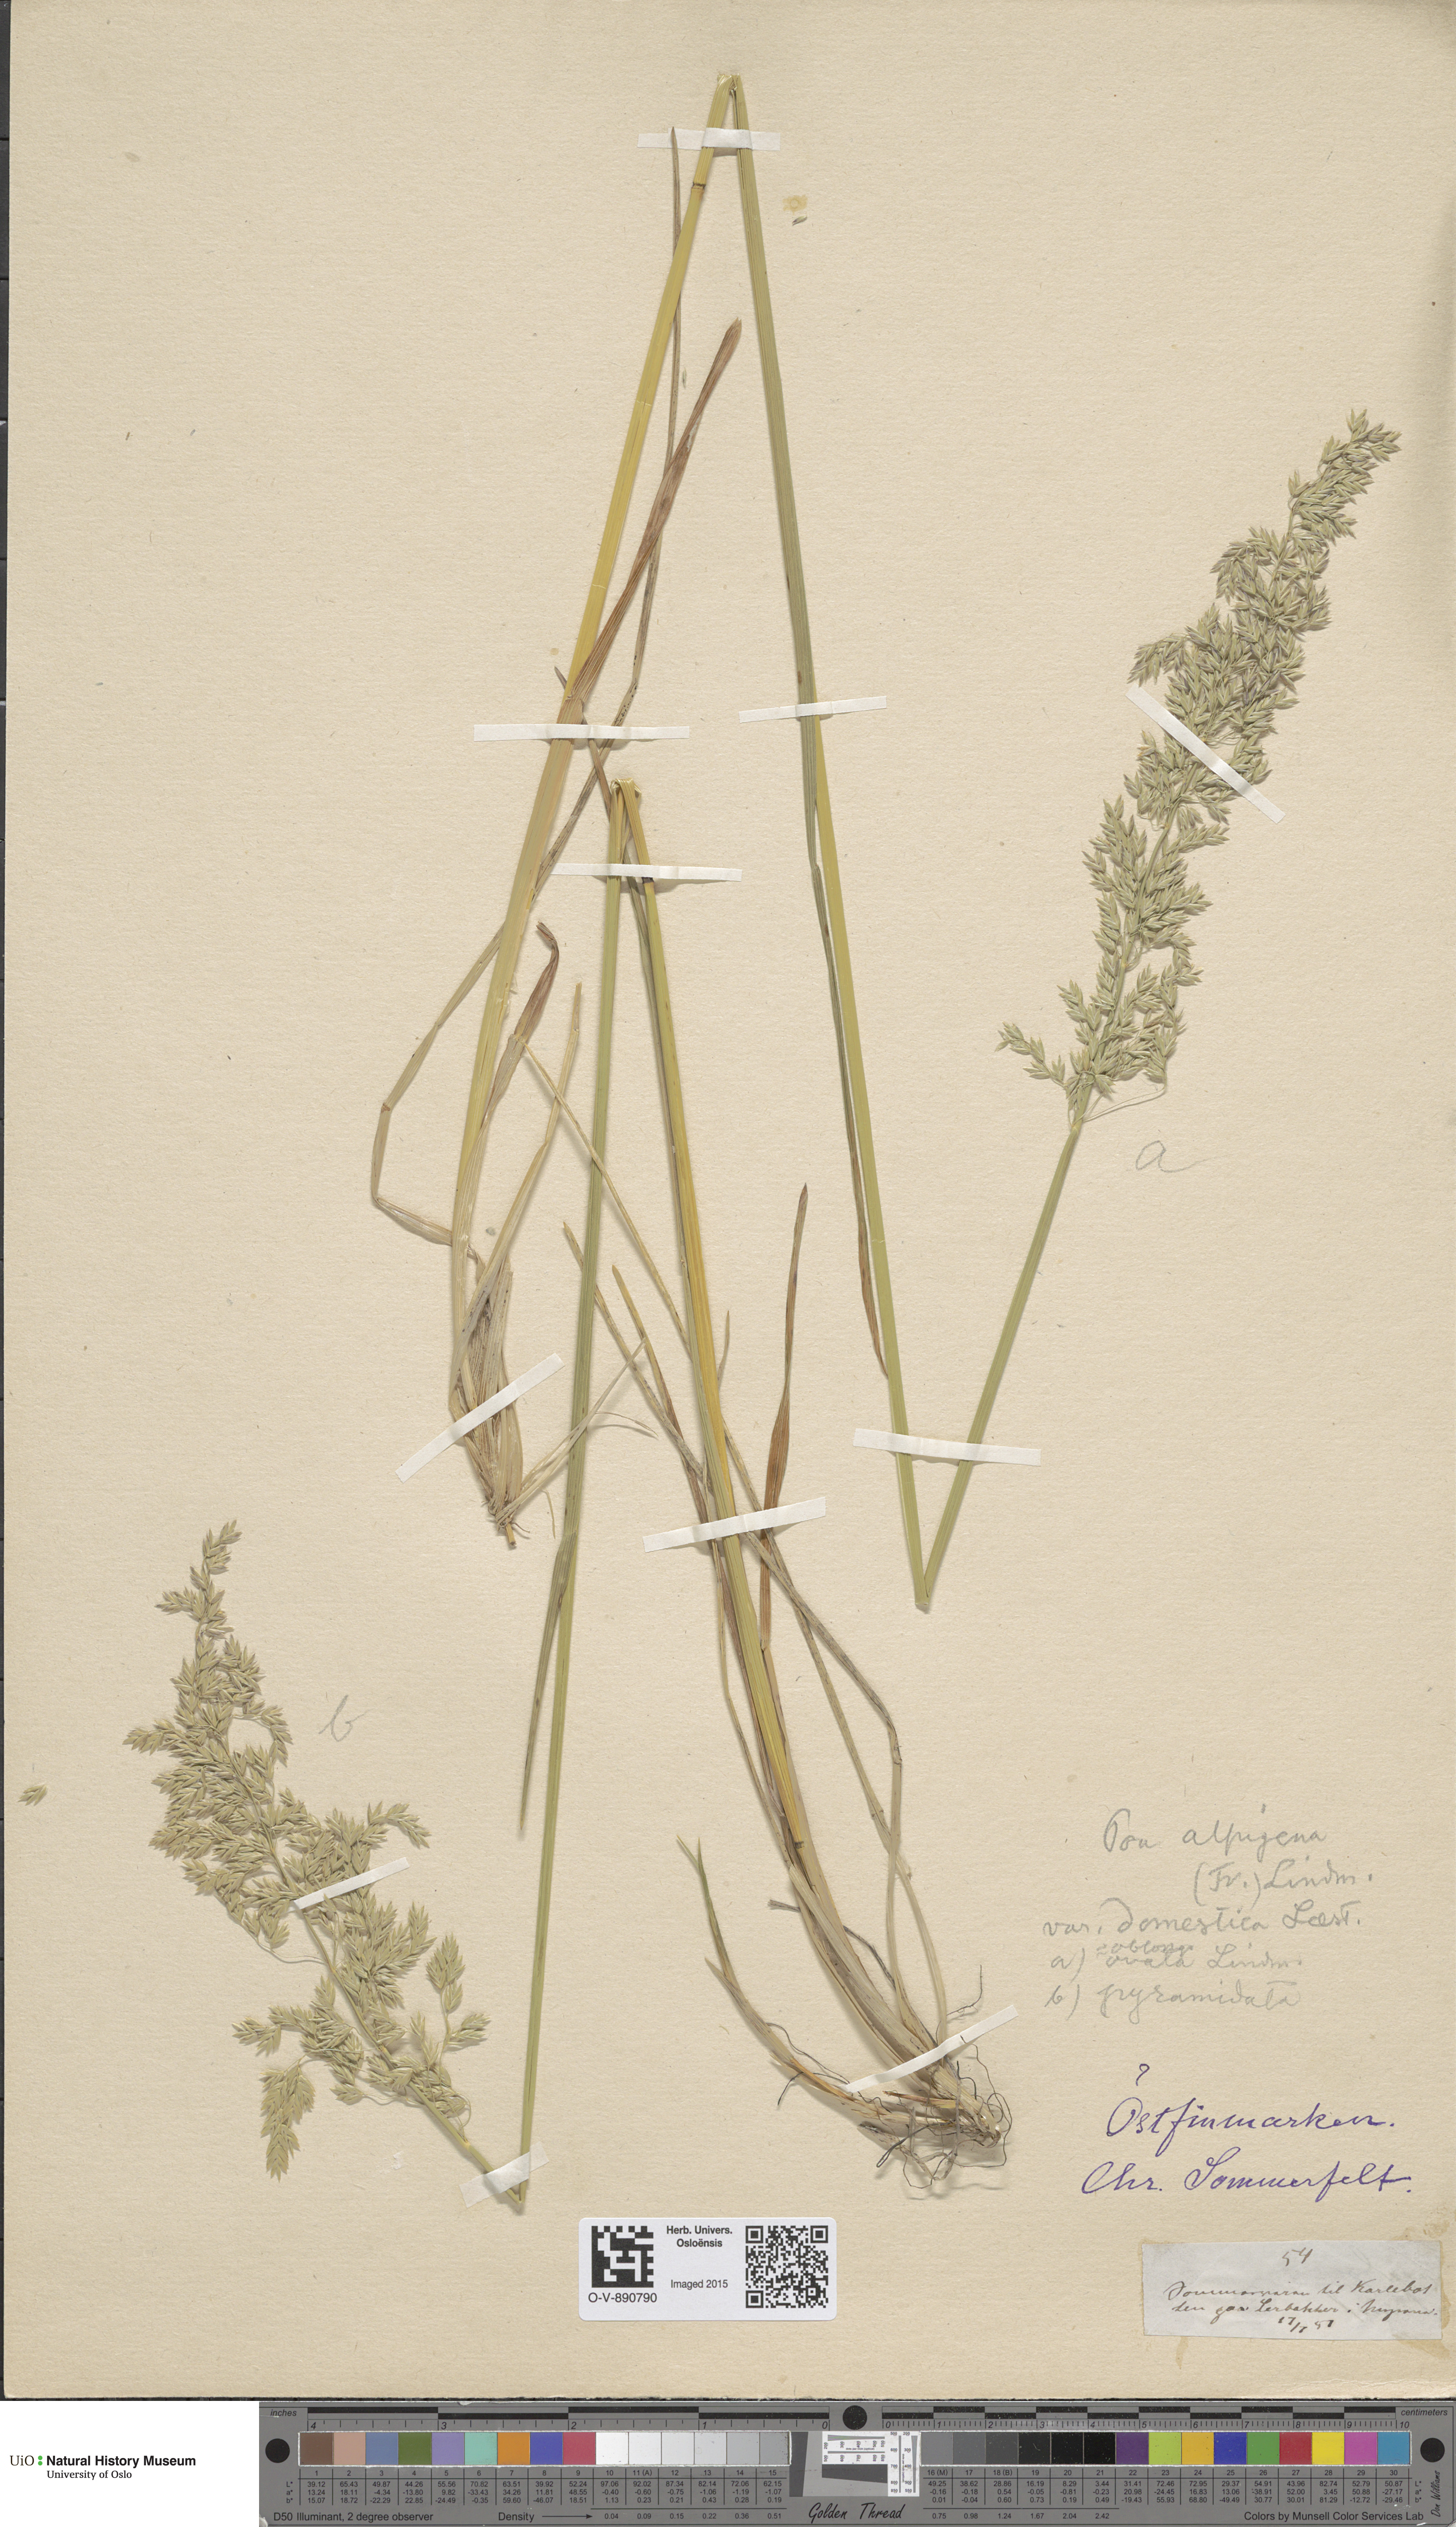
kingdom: Plantae
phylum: Tracheophyta
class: Liliopsida
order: Poales
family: Poaceae
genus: Poa
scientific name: Poa pratensis
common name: Kentucky bluegrass
